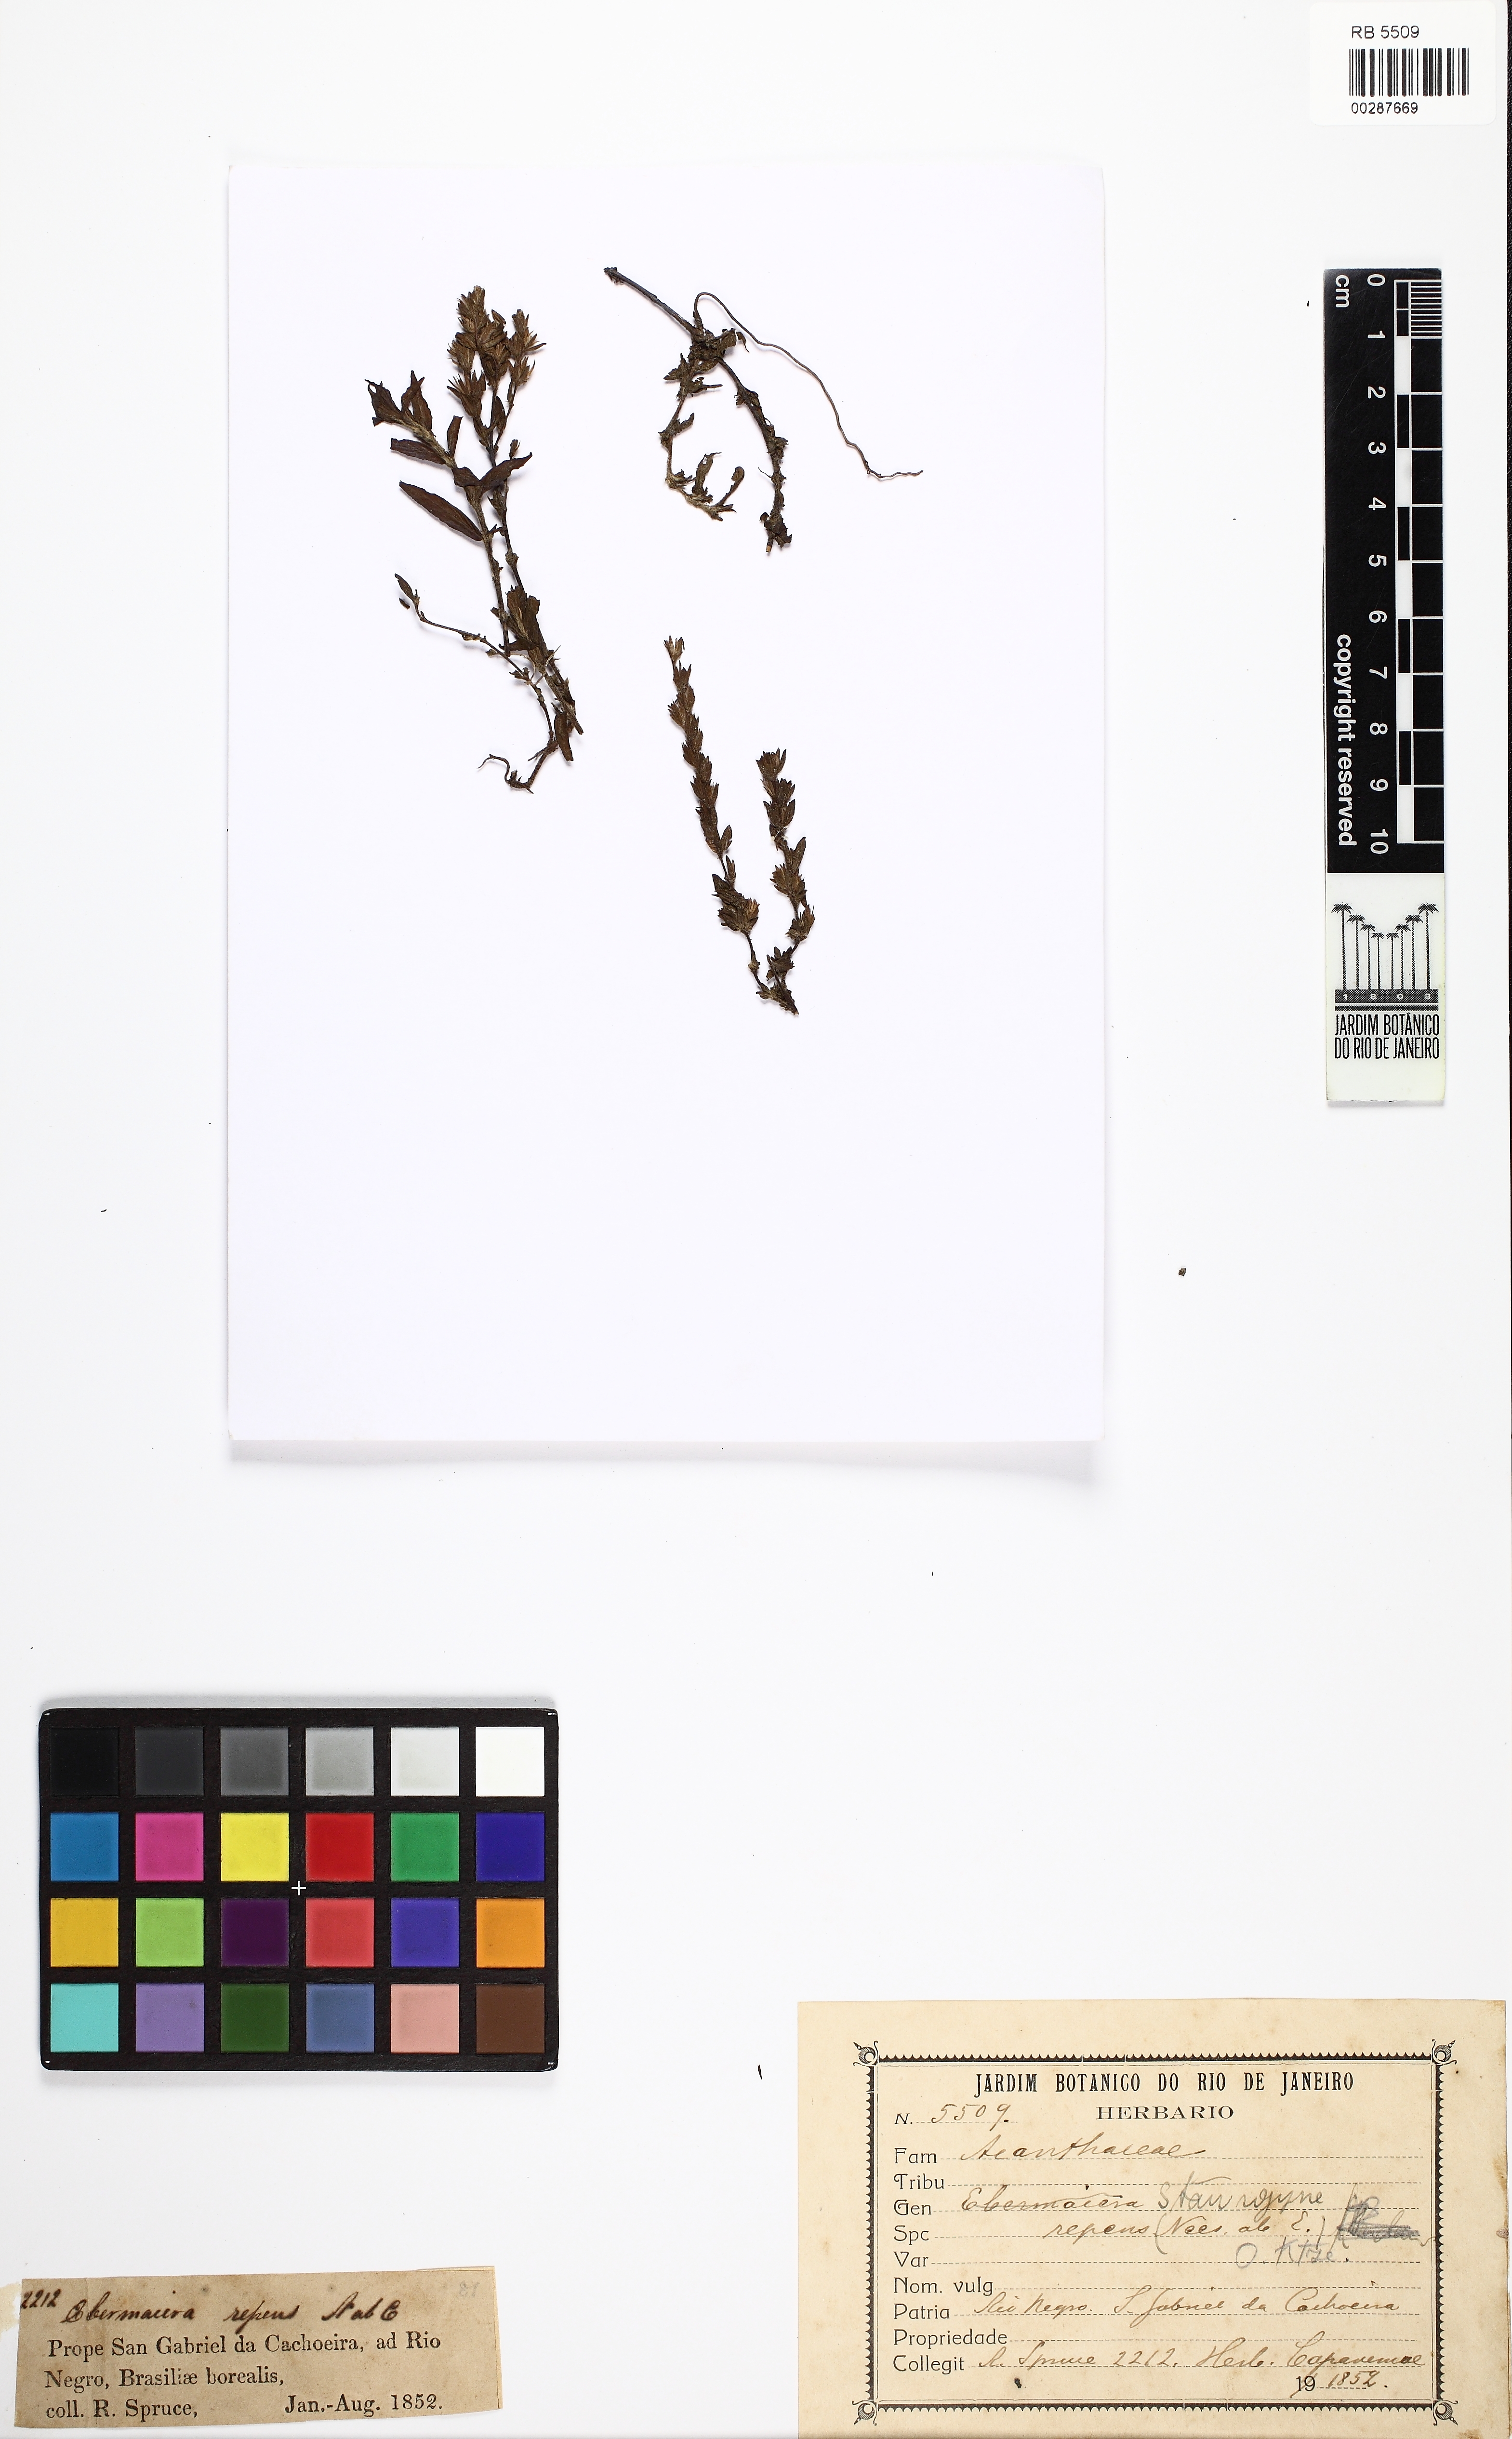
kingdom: Plantae
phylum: Tracheophyta
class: Magnoliopsida
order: Lamiales
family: Acanthaceae
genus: Staurogyne
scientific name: Staurogyne repens
